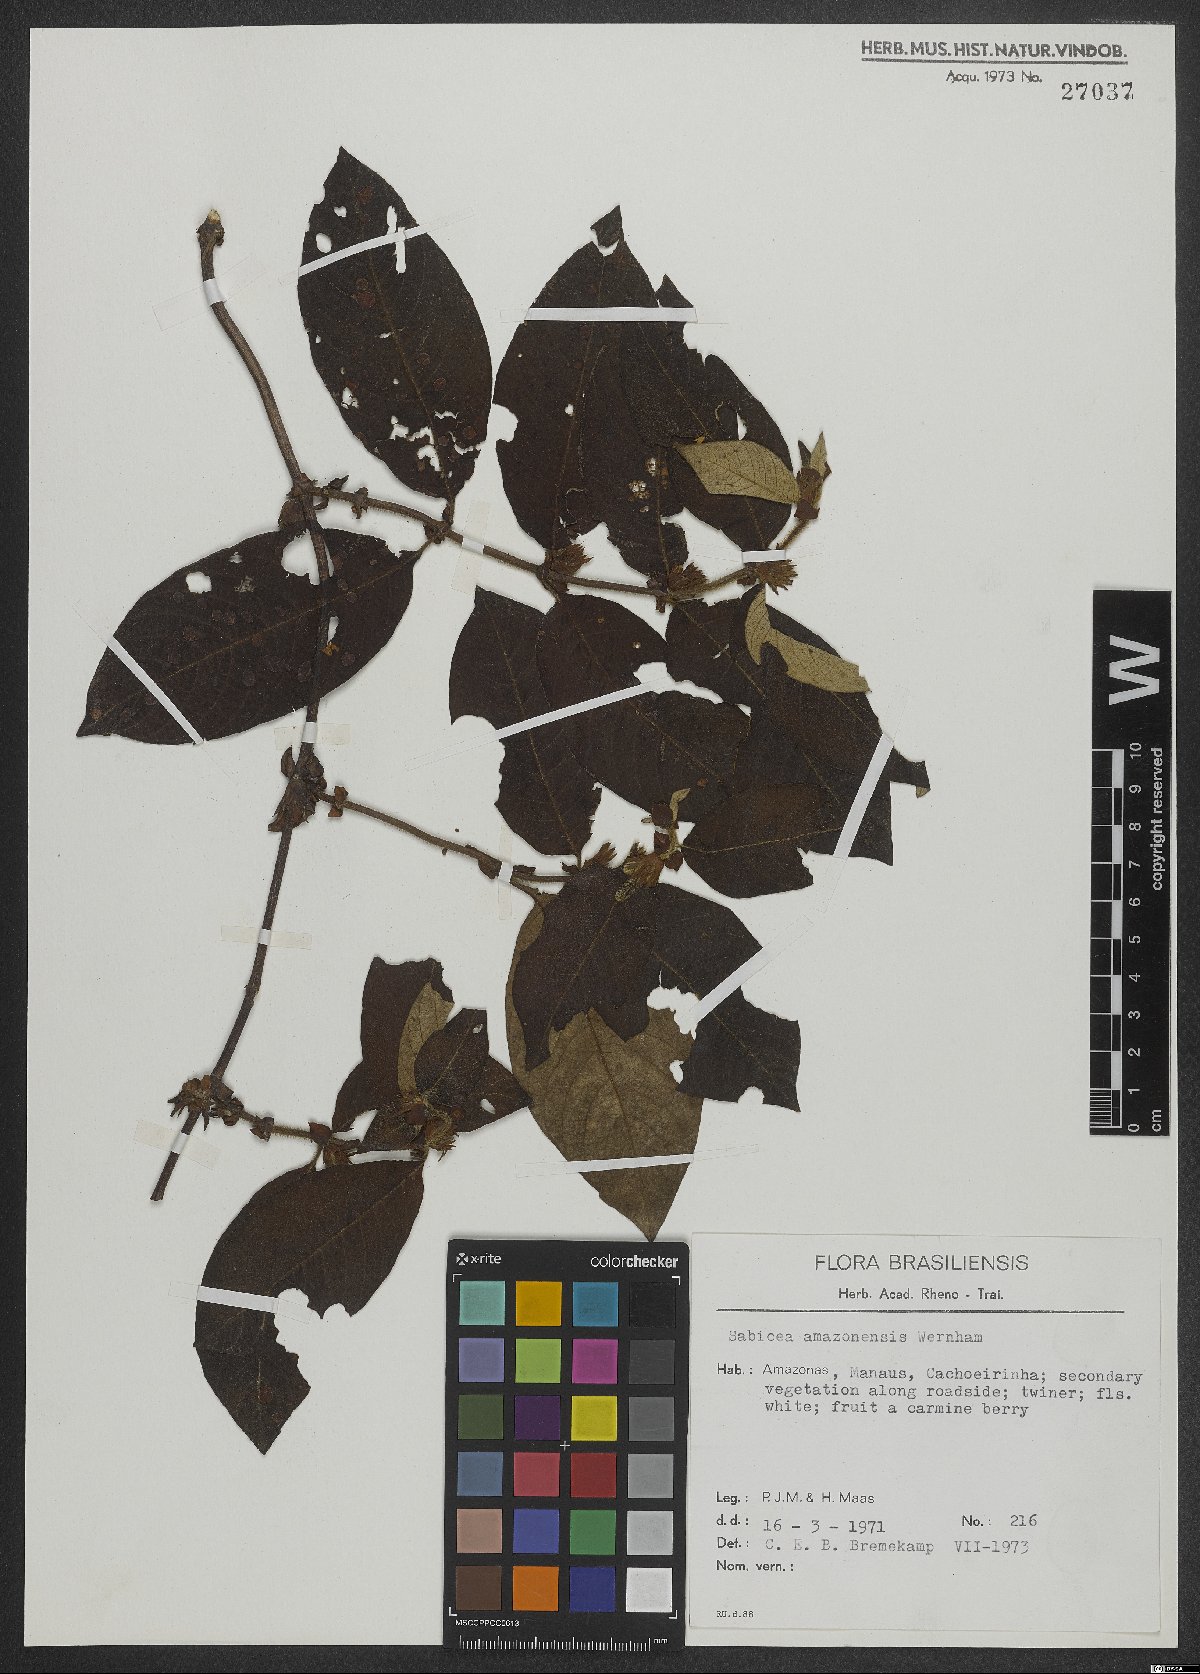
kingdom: Plantae
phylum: Tracheophyta
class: Magnoliopsida
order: Gentianales
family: Rubiaceae
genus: Sabicea
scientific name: Sabicea amazonensis
